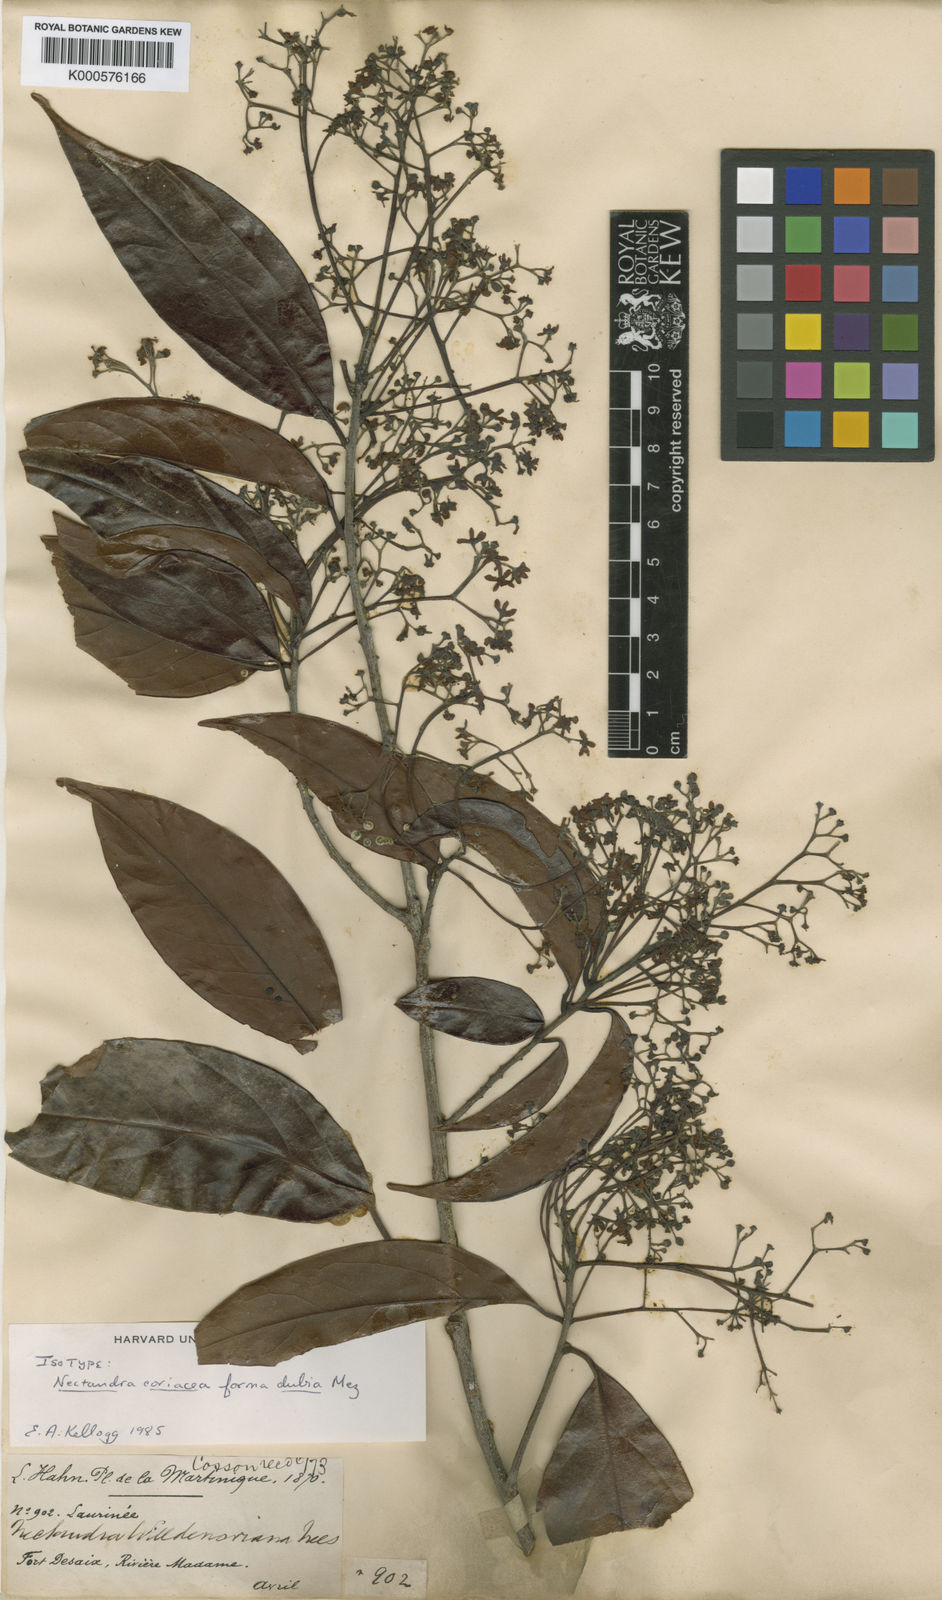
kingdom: Plantae
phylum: Tracheophyta
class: Magnoliopsida
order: Laurales
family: Lauraceae
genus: Damburneya
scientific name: Damburneya patens
